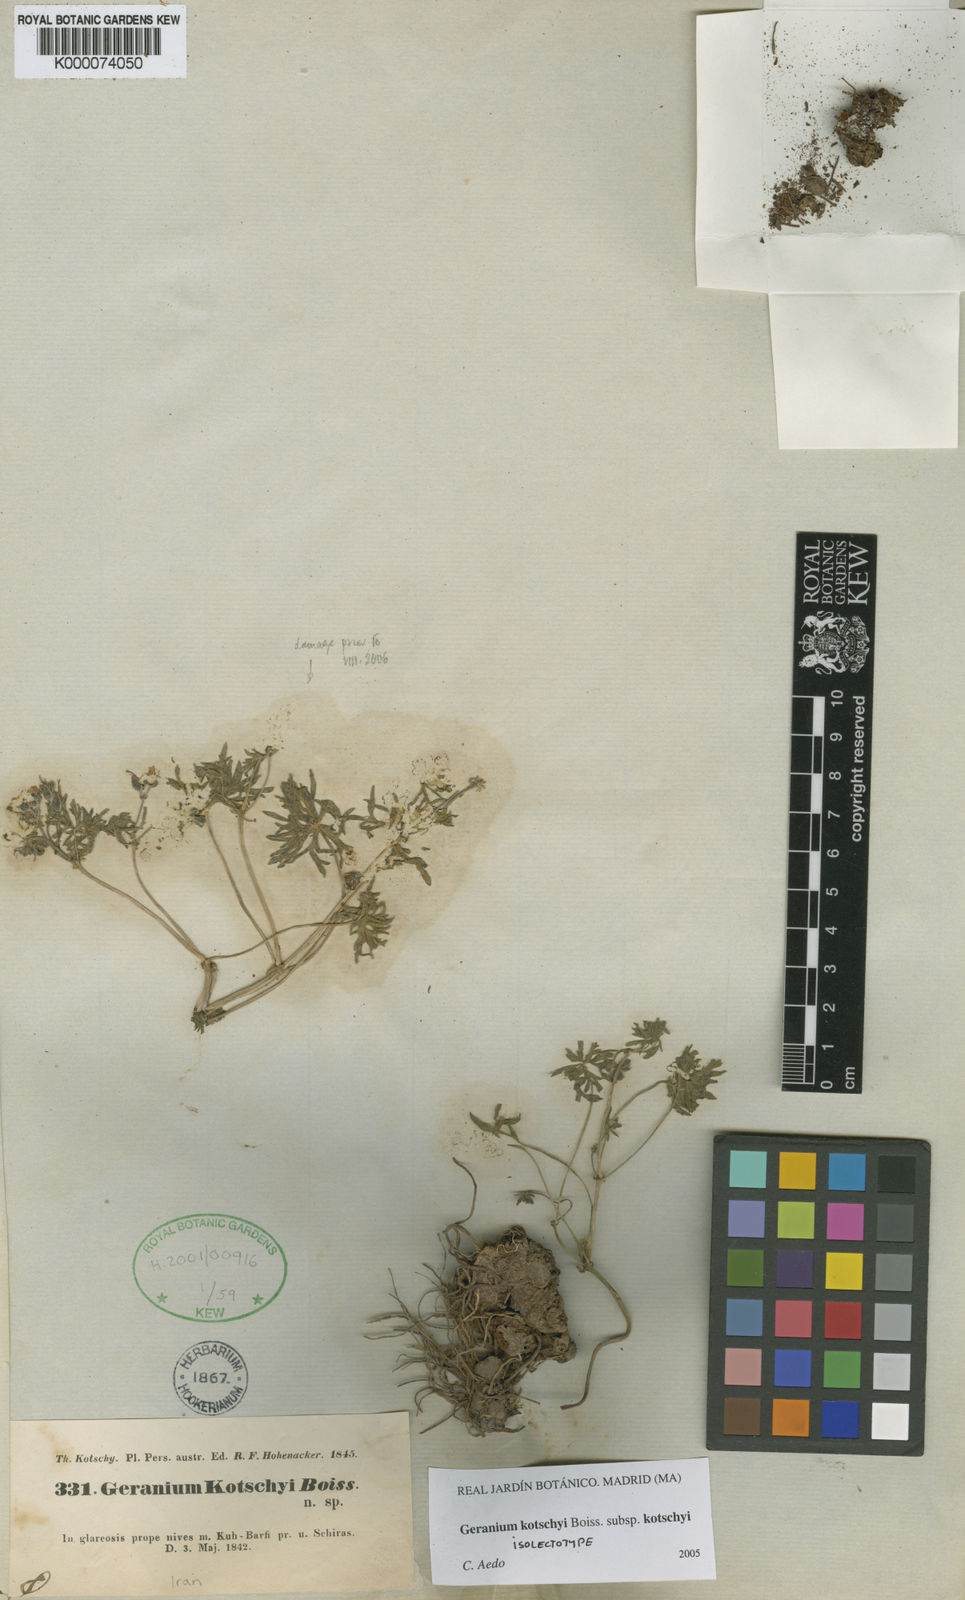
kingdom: Plantae
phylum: Tracheophyta
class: Magnoliopsida
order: Geraniales
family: Geraniaceae
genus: Geranium
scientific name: Geranium kotschyi
